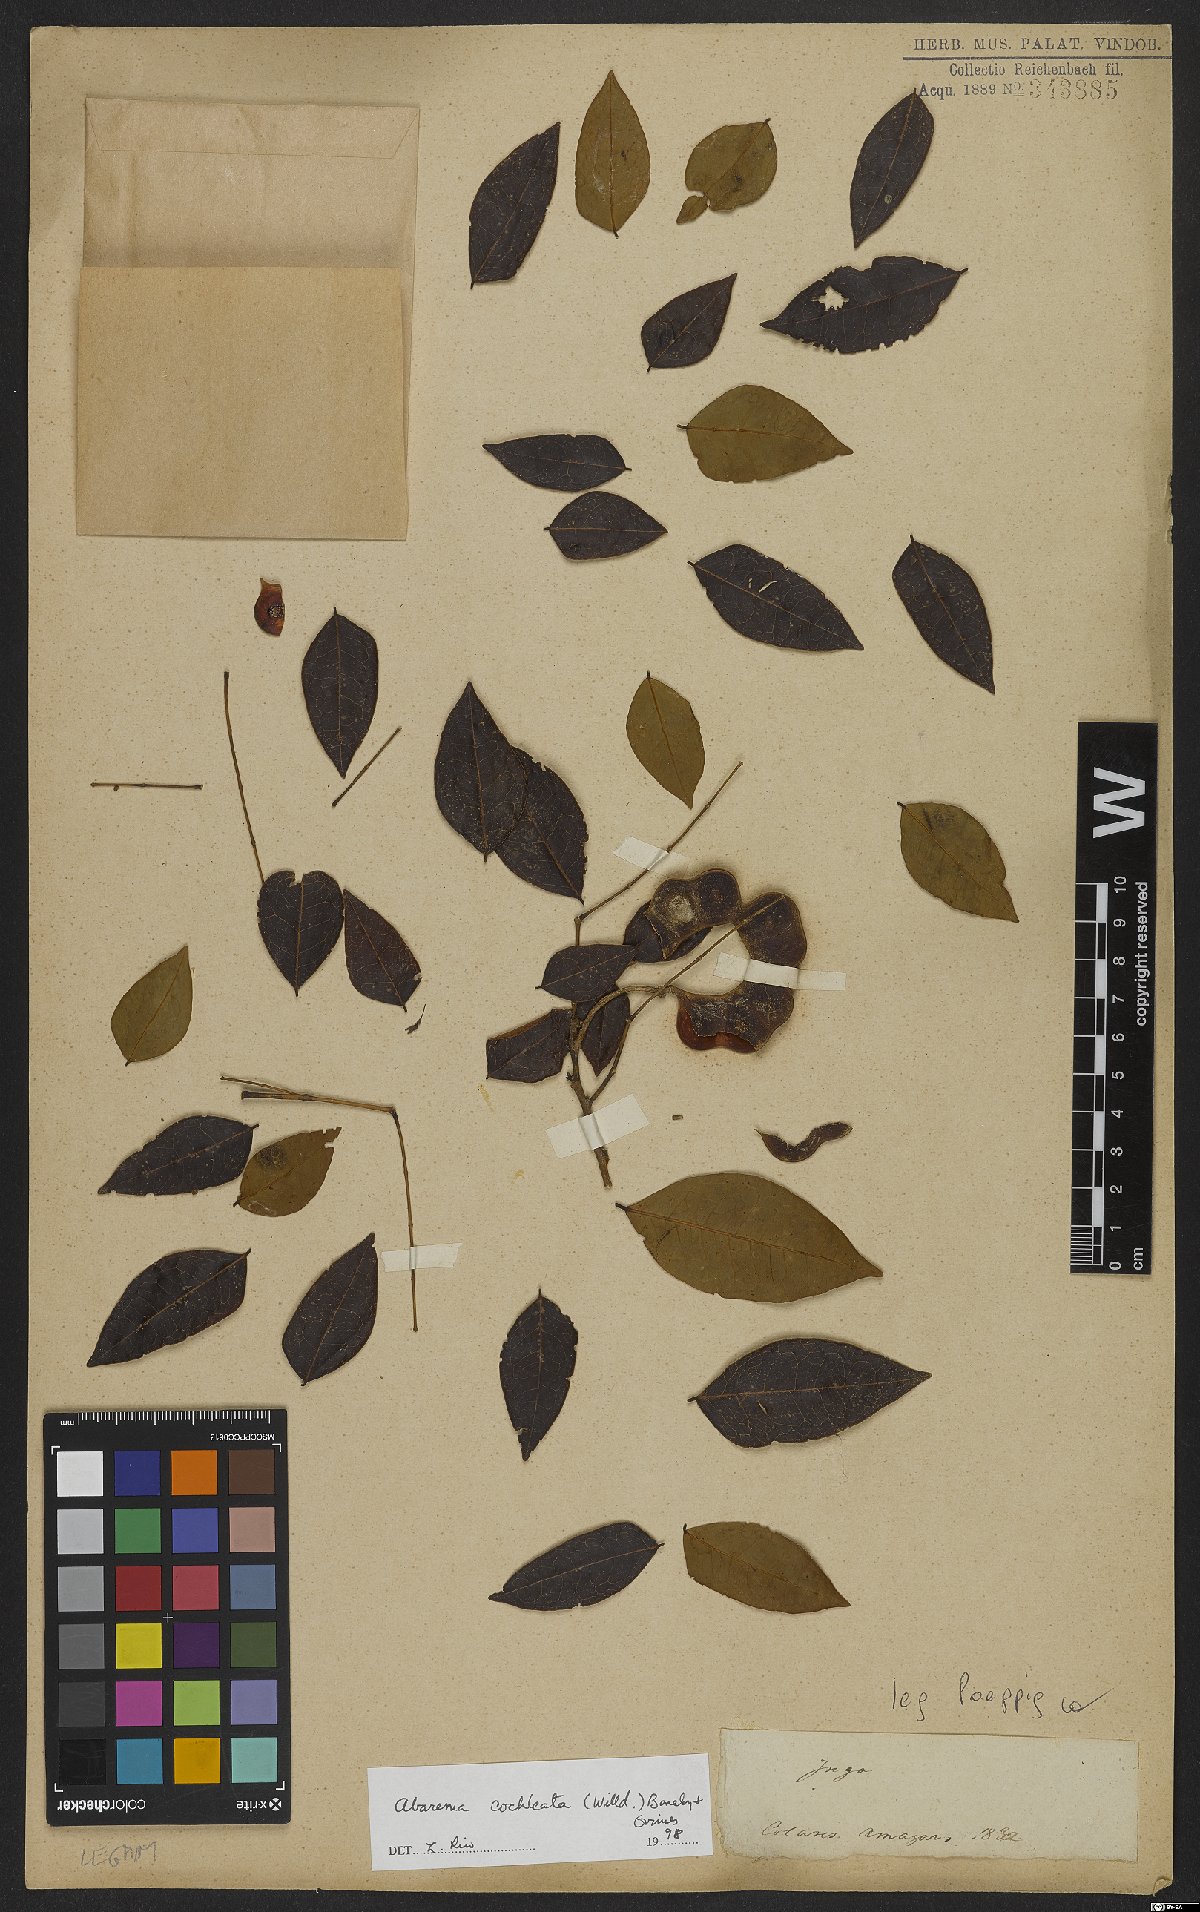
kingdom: Plantae
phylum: Tracheophyta
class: Magnoliopsida
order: Fabales
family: Fabaceae
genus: Jupunba
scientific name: Jupunba cochleata
